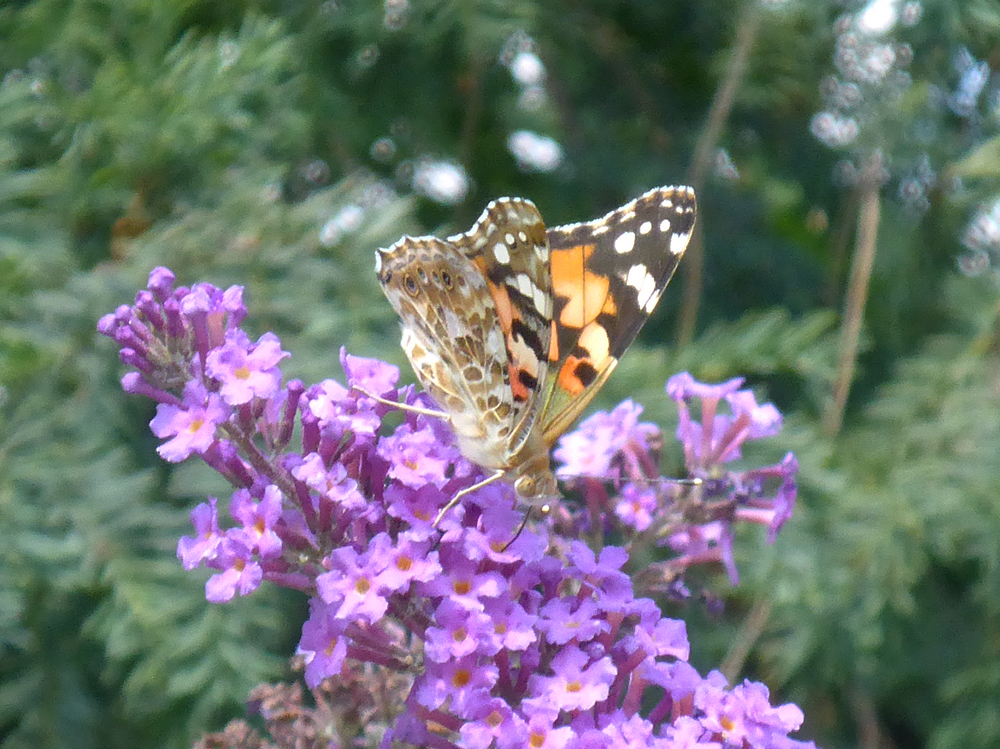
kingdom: Animalia
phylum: Arthropoda
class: Insecta
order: Lepidoptera
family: Nymphalidae
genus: Vanessa
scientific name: Vanessa cardui
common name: Painted lady
